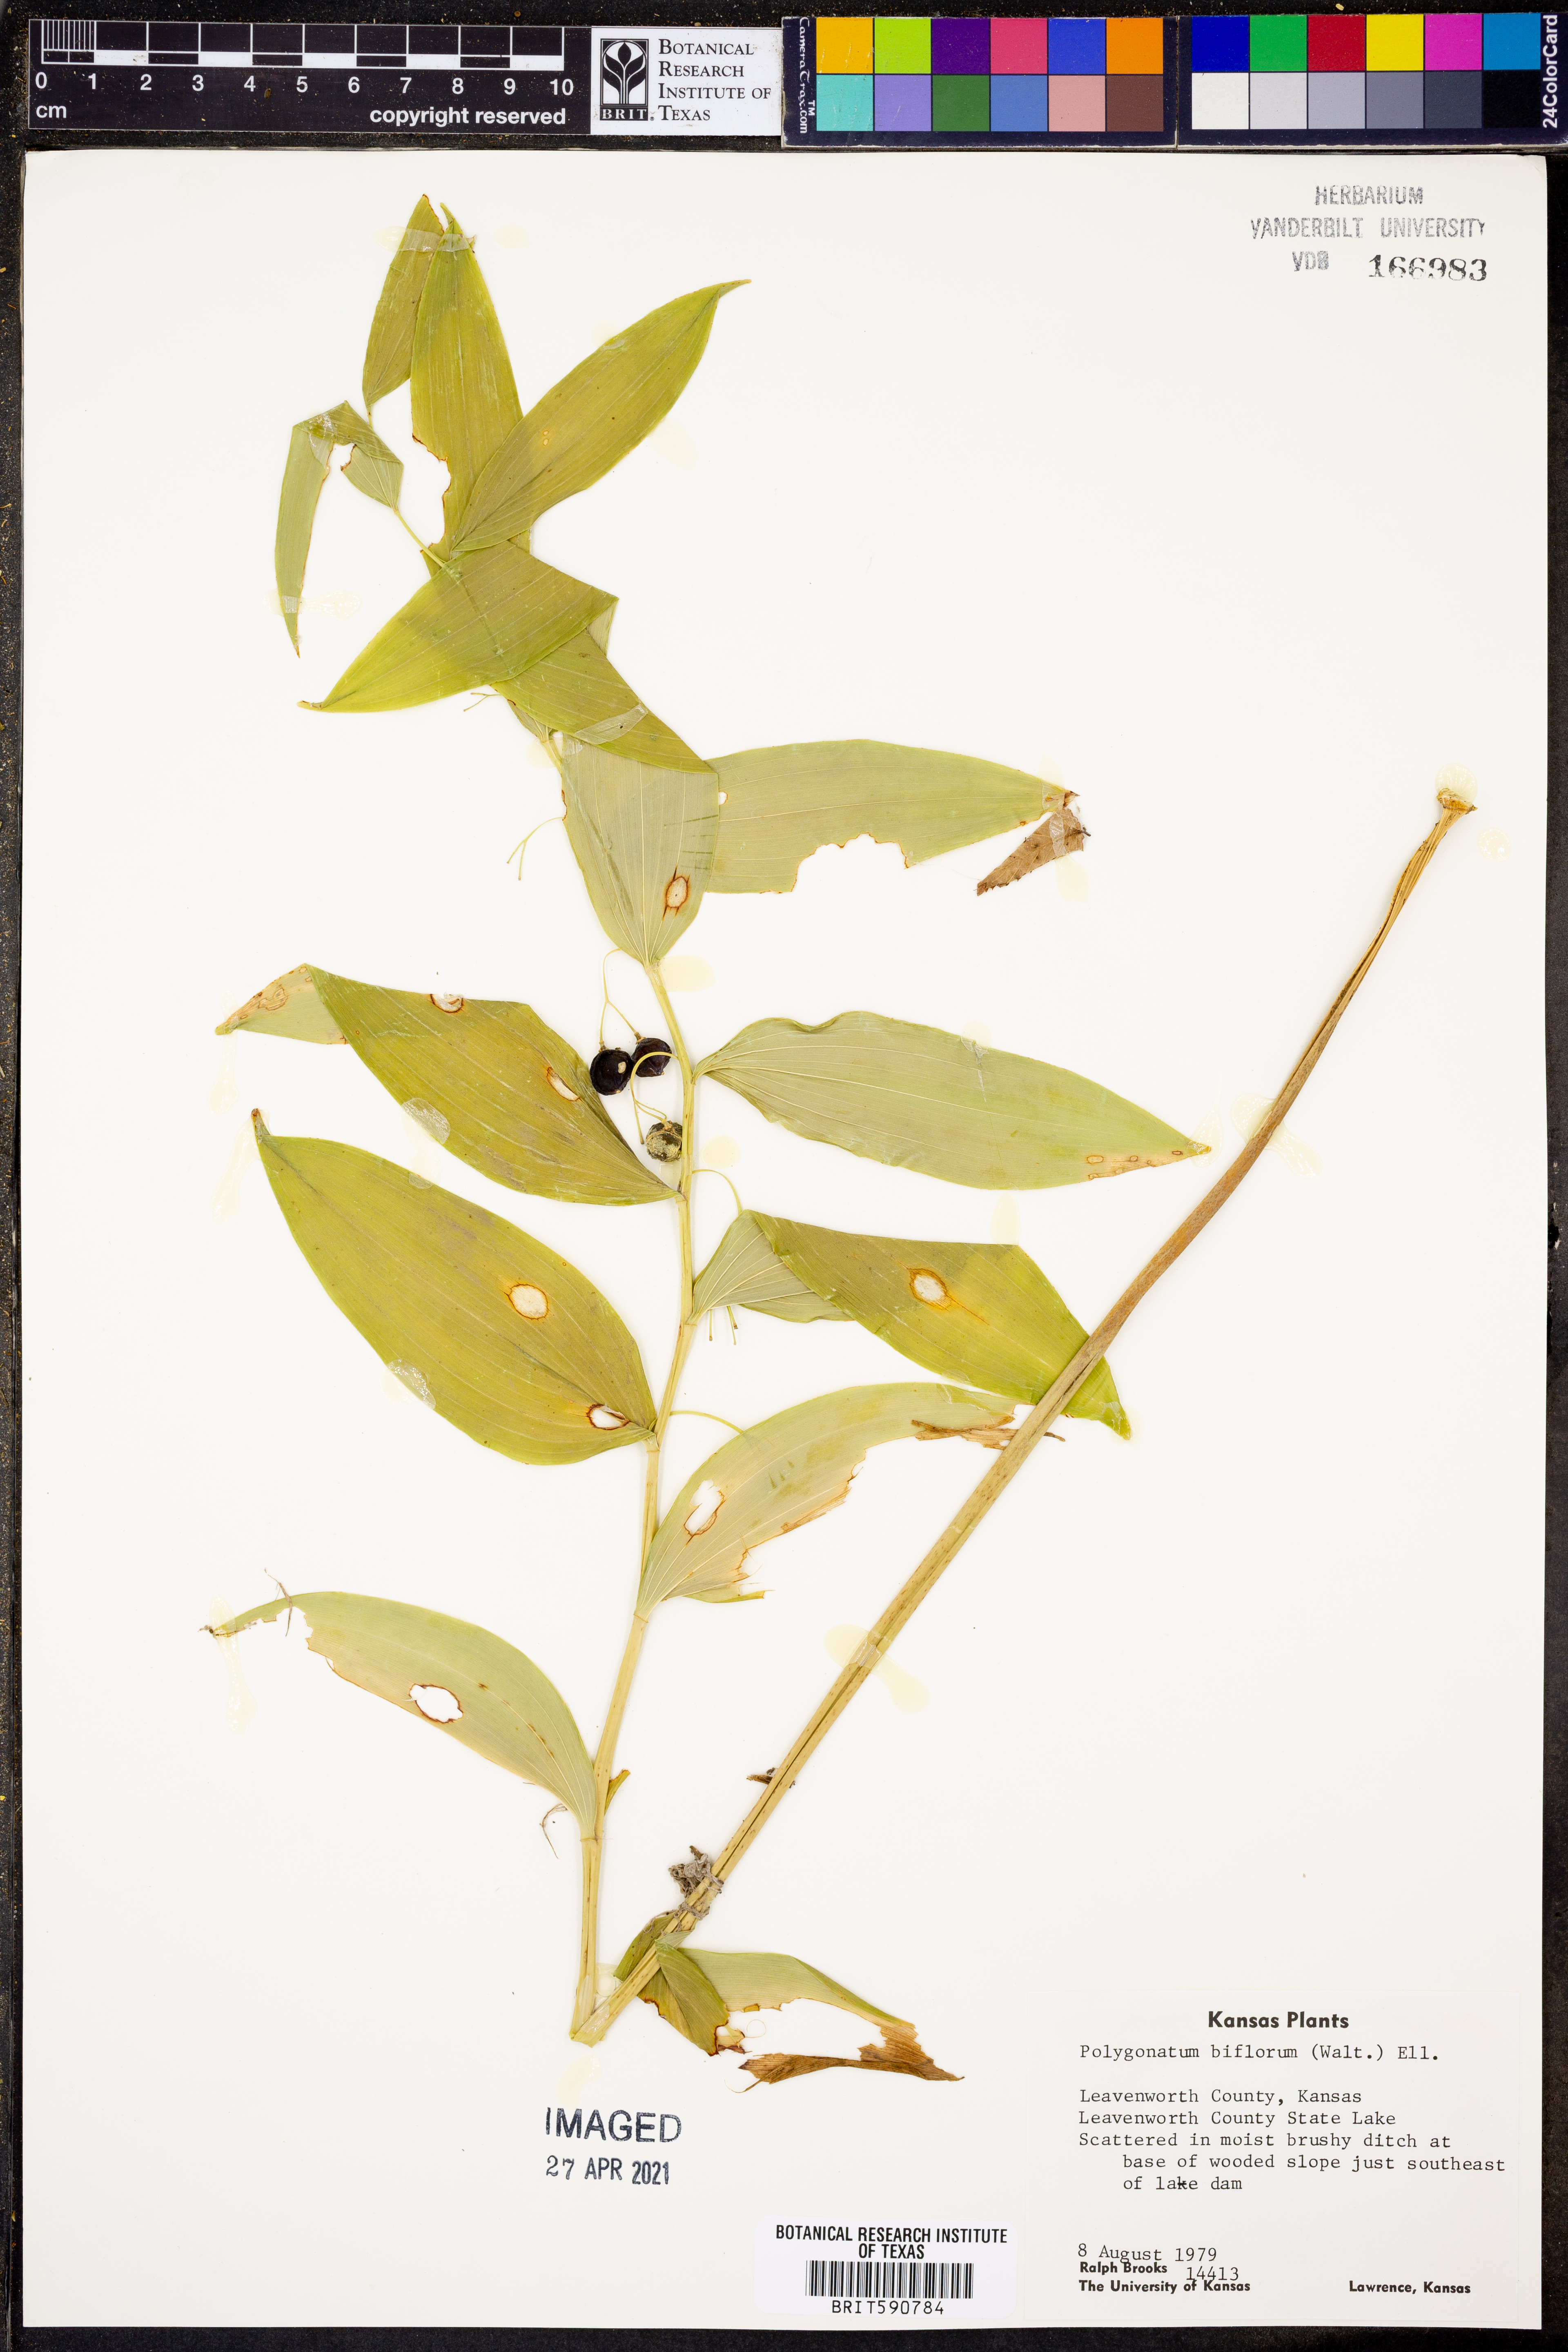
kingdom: Plantae
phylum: Tracheophyta
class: Liliopsida
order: Asparagales
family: Asparagaceae
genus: Polygonatum
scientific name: Polygonatum biflorum
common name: American solomon's-seal
